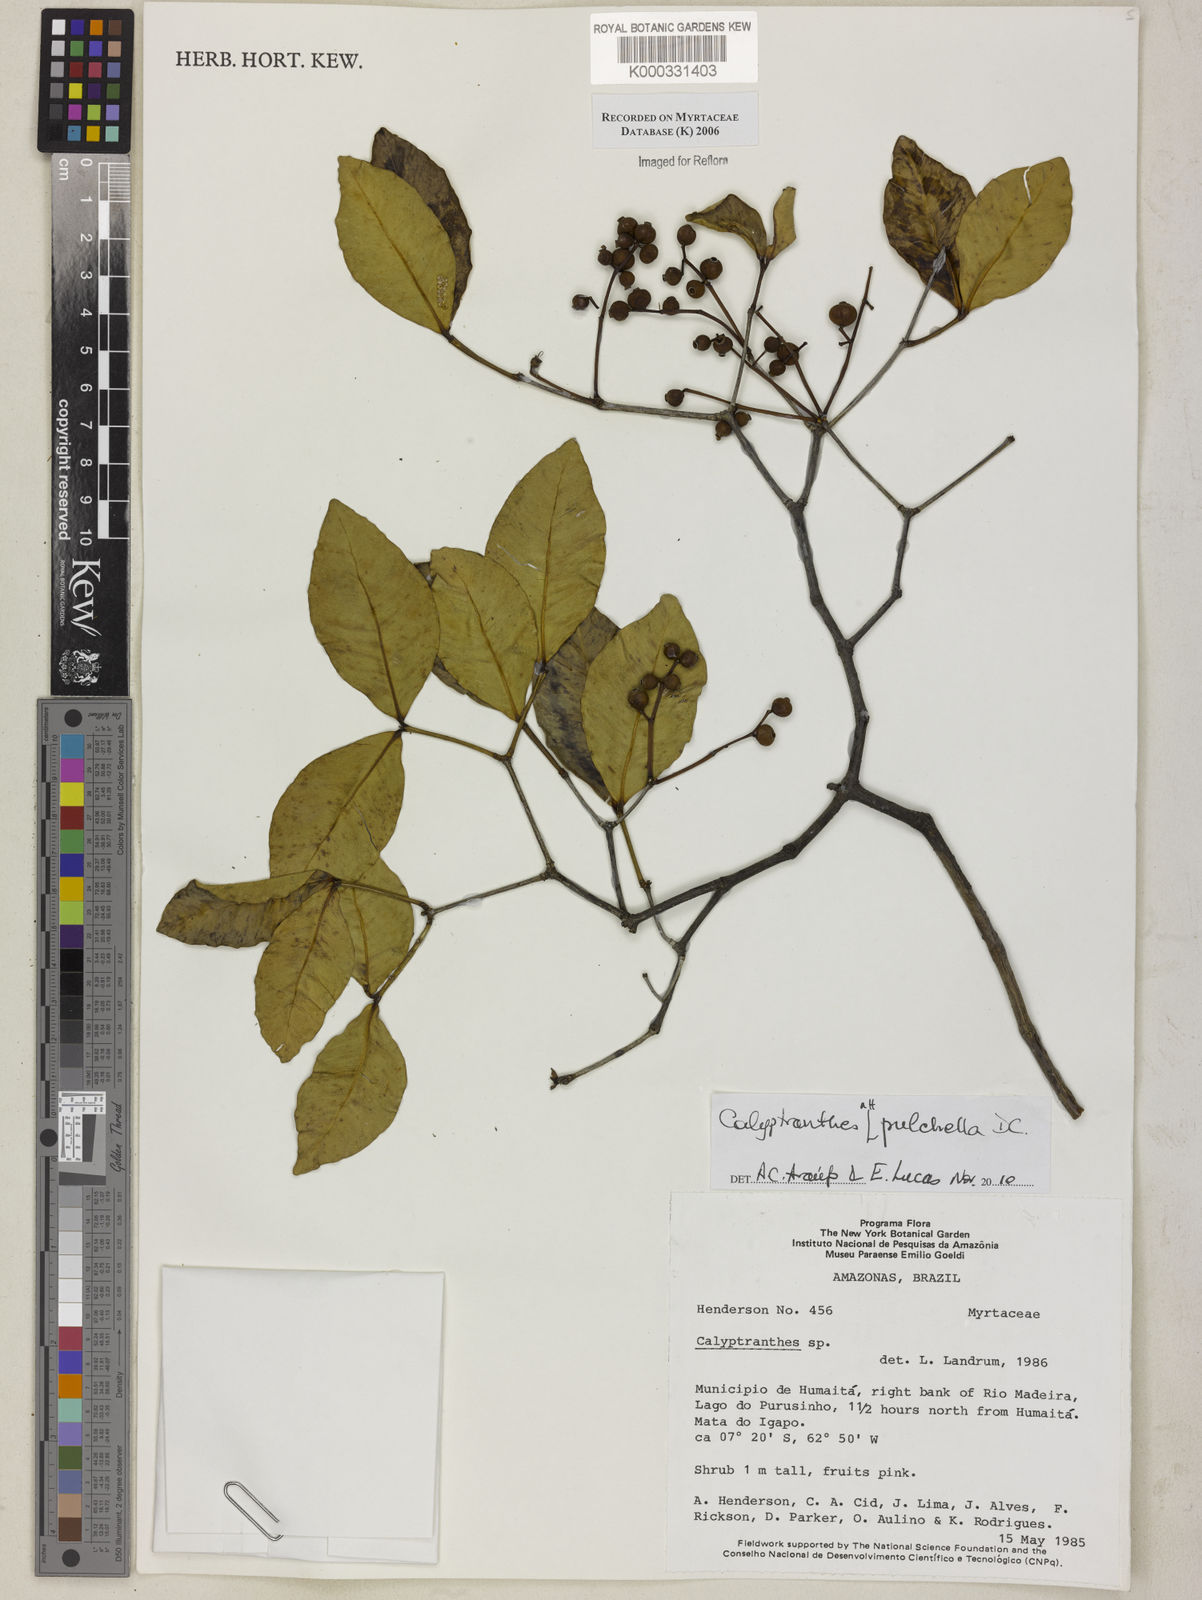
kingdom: Plantae
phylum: Tracheophyta
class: Magnoliopsida
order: Myrtales
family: Myrtaceae
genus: Calyptranthes
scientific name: Calyptranthes
